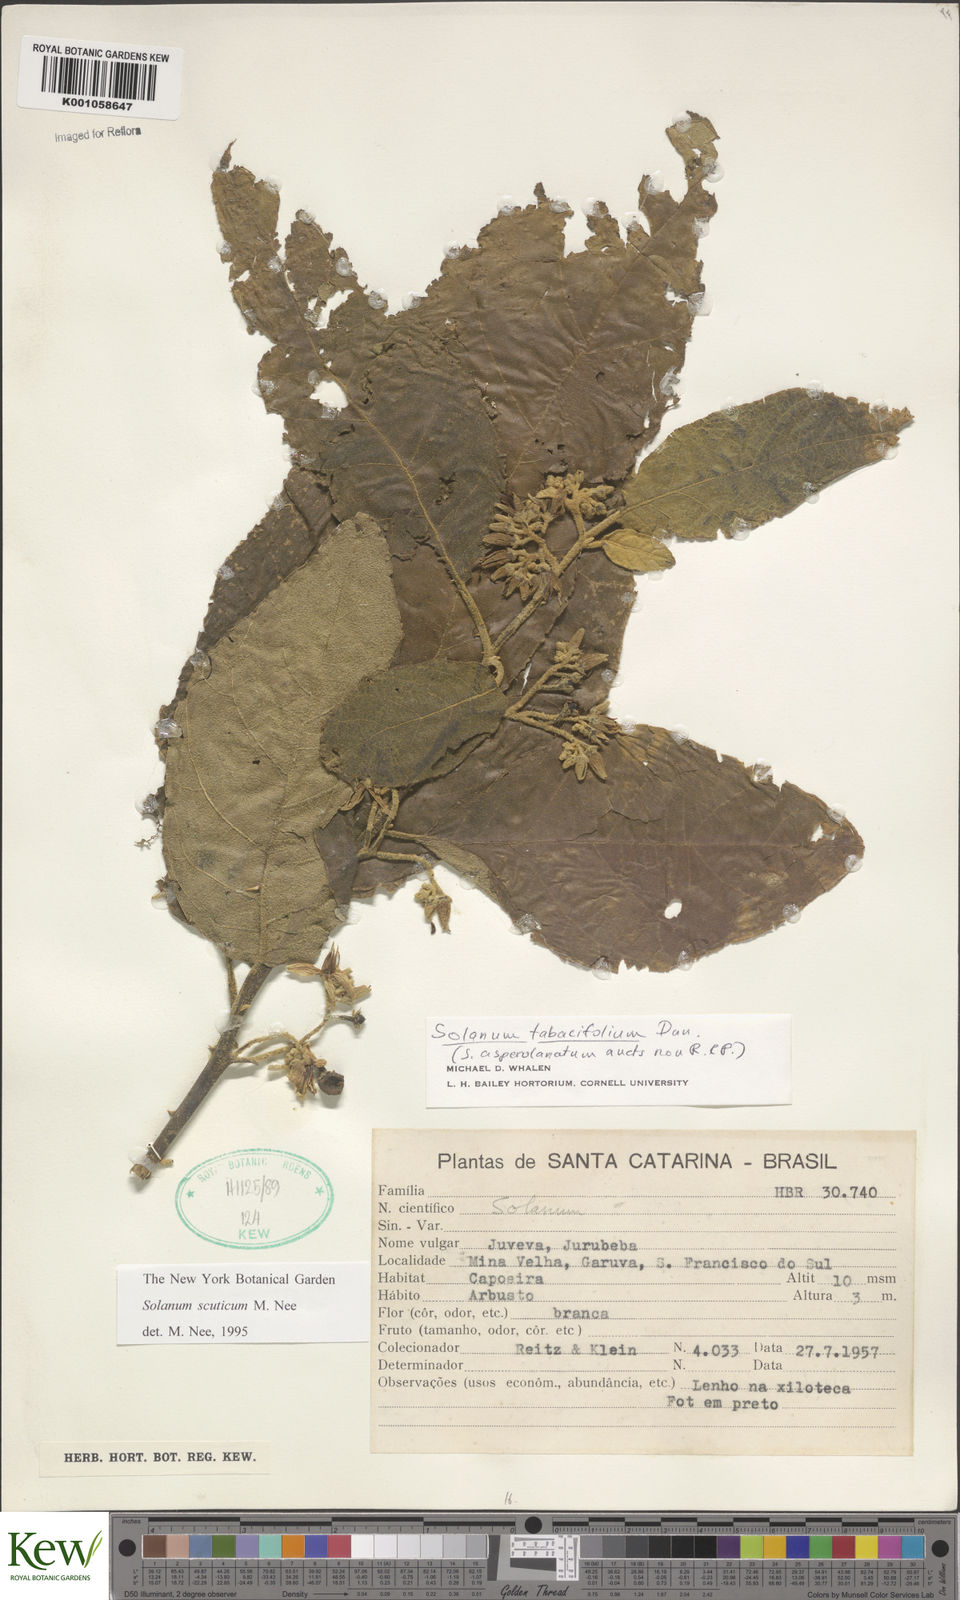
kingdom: Plantae
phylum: Tracheophyta
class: Magnoliopsida
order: Solanales
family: Solanaceae
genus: Solanum
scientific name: Solanum scuticum
